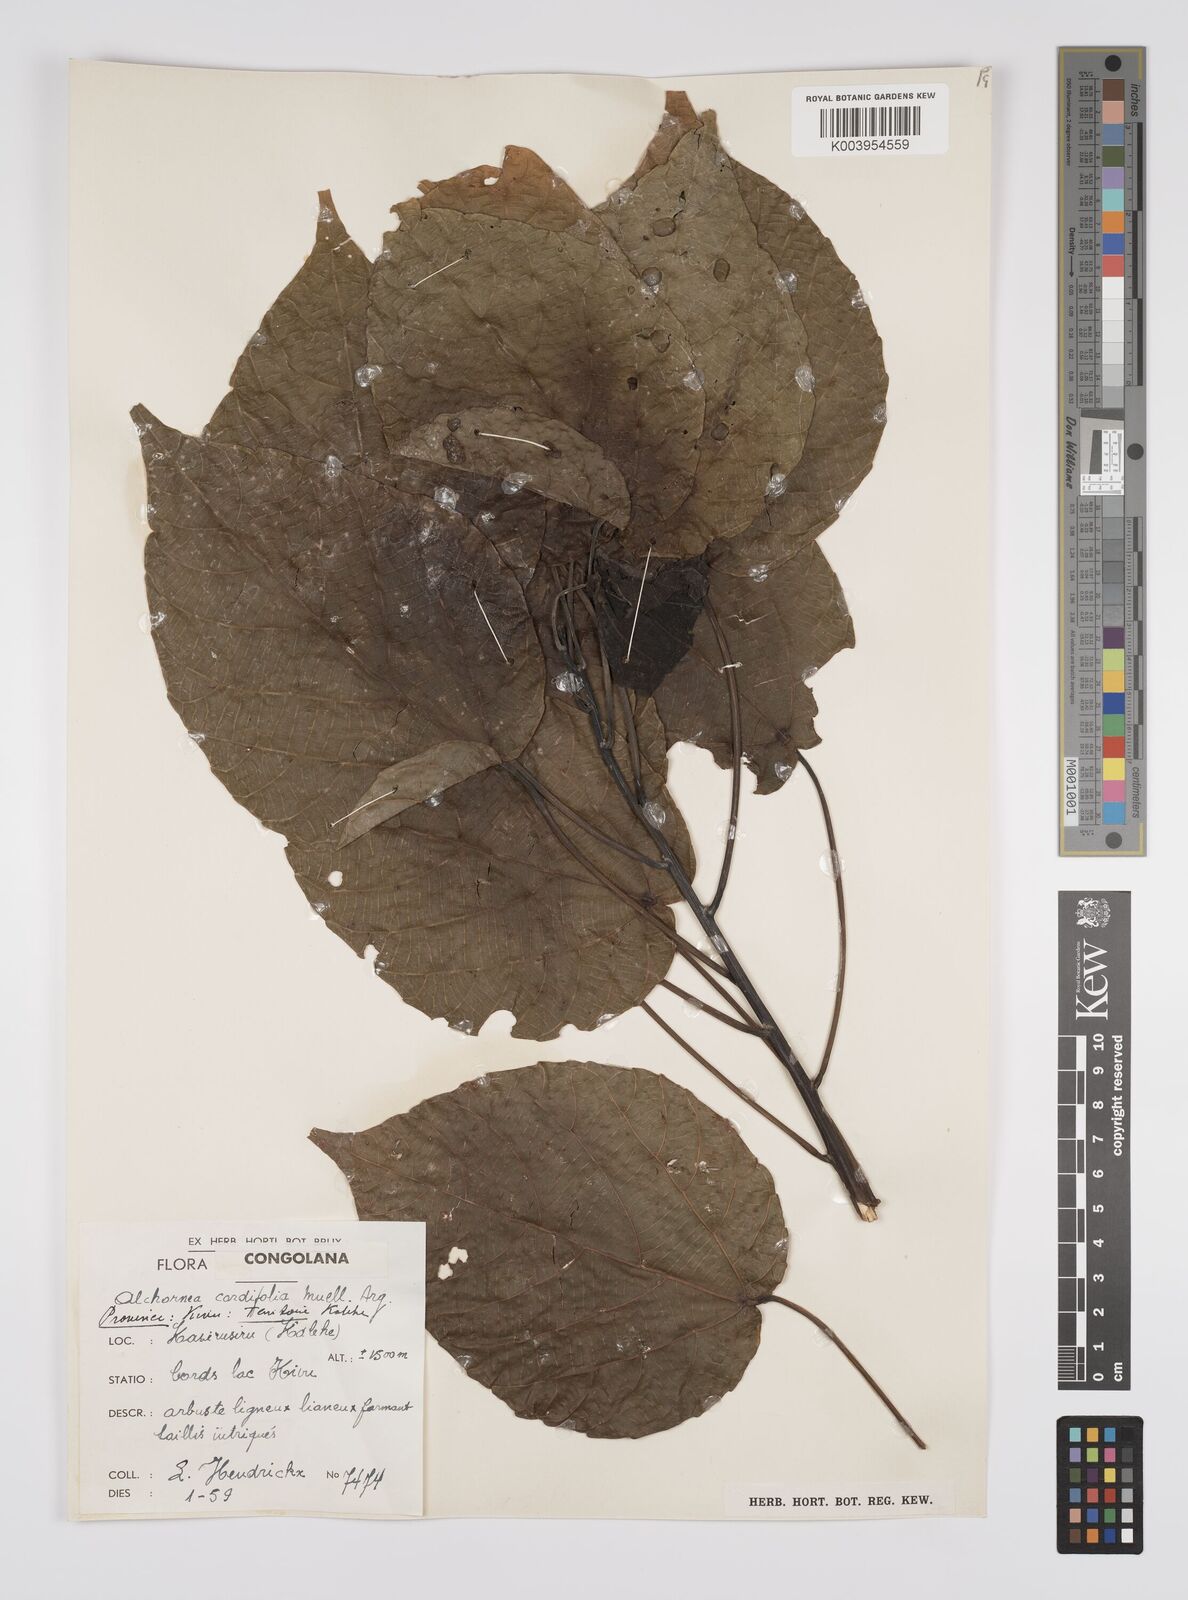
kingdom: Plantae
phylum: Tracheophyta
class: Magnoliopsida
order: Malpighiales
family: Euphorbiaceae
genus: Alchornea
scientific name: Alchornea cordifolia
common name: Christmasbush
